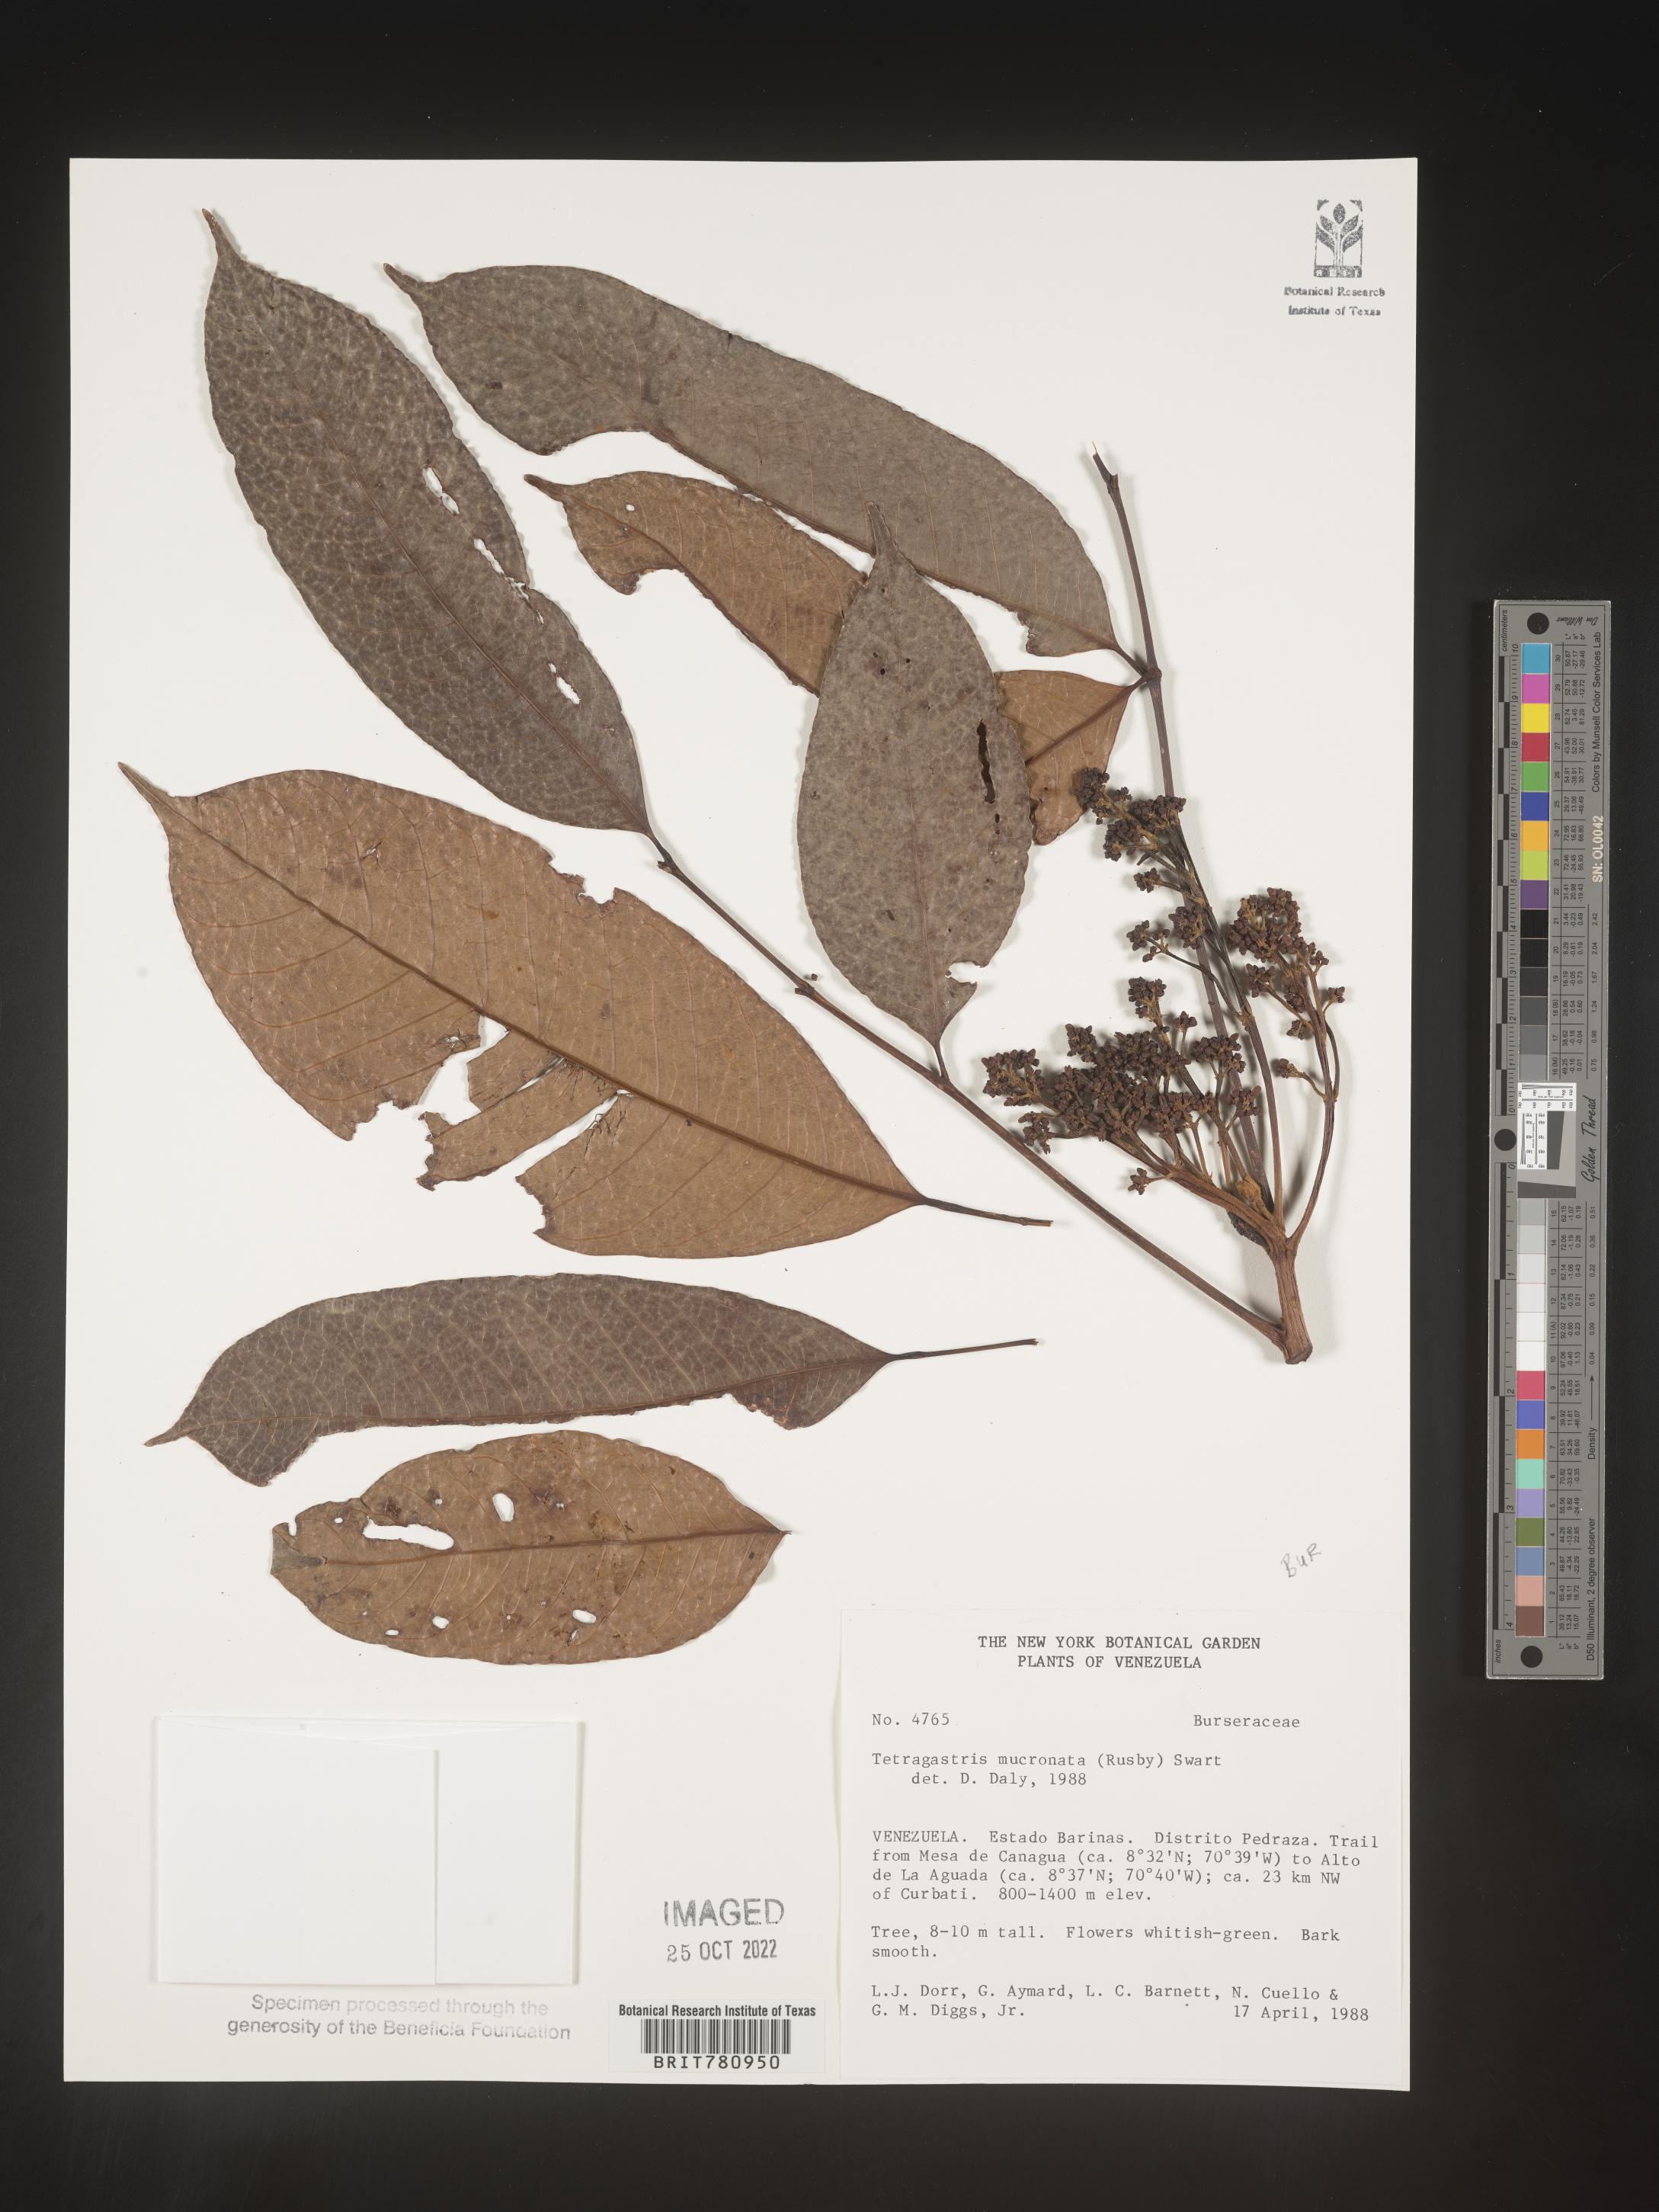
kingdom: Plantae
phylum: Tracheophyta
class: Magnoliopsida
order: Sapindales
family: Burseraceae
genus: Tetragastris
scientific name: Tetragastris
